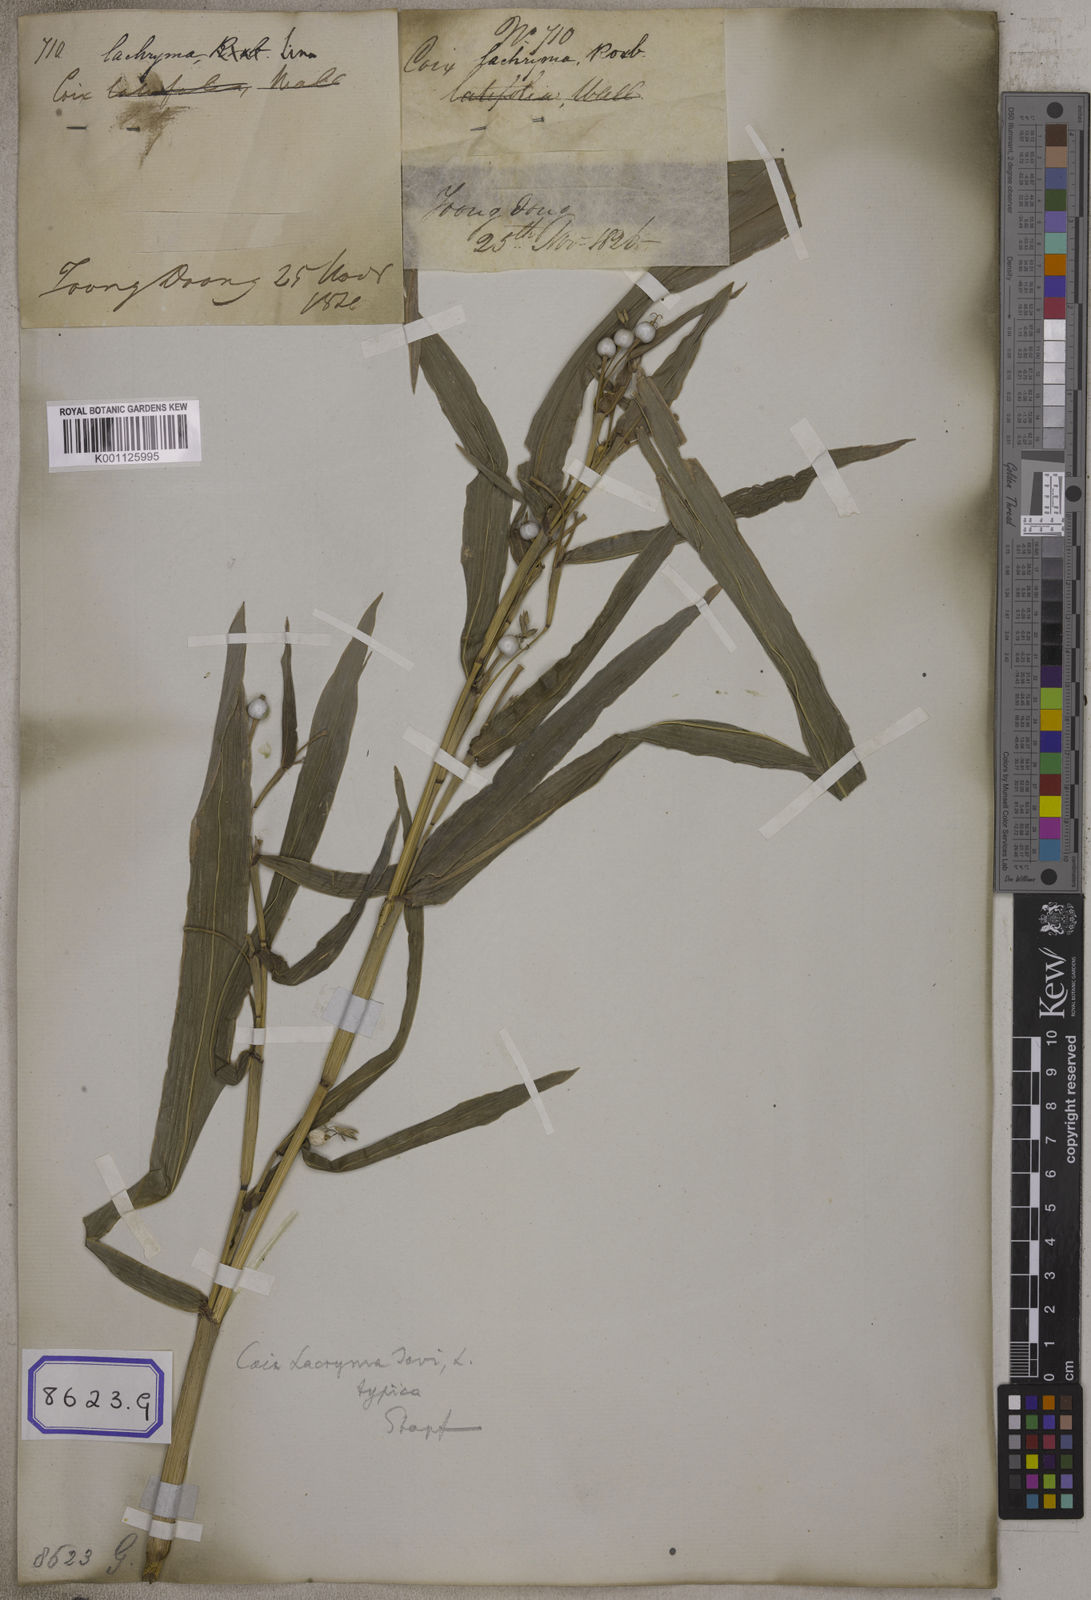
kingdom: Plantae
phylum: Tracheophyta
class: Liliopsida
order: Poales
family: Poaceae
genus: Coix
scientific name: Coix lacryma-jobi
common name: Job's tears
